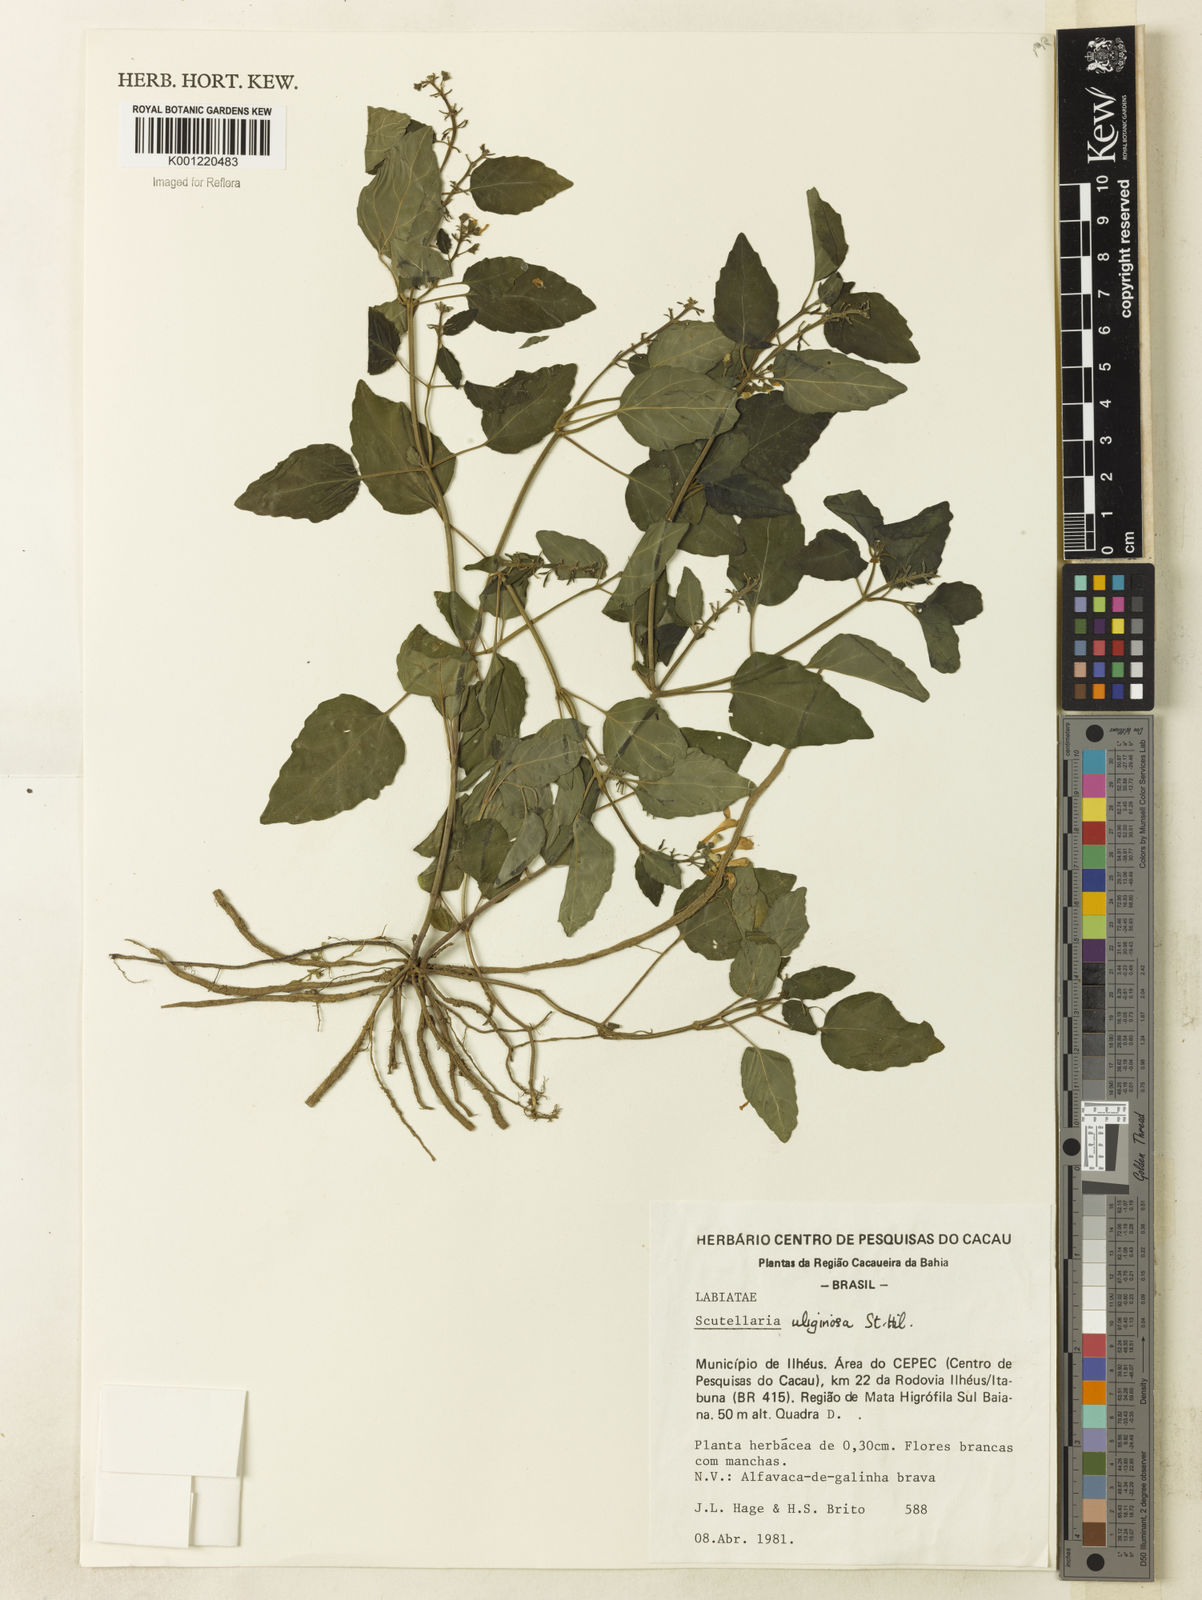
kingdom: Plantae
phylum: Tracheophyta
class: Magnoliopsida
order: Lamiales
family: Lamiaceae
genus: Scutellaria
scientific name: Scutellaria uliginosa
